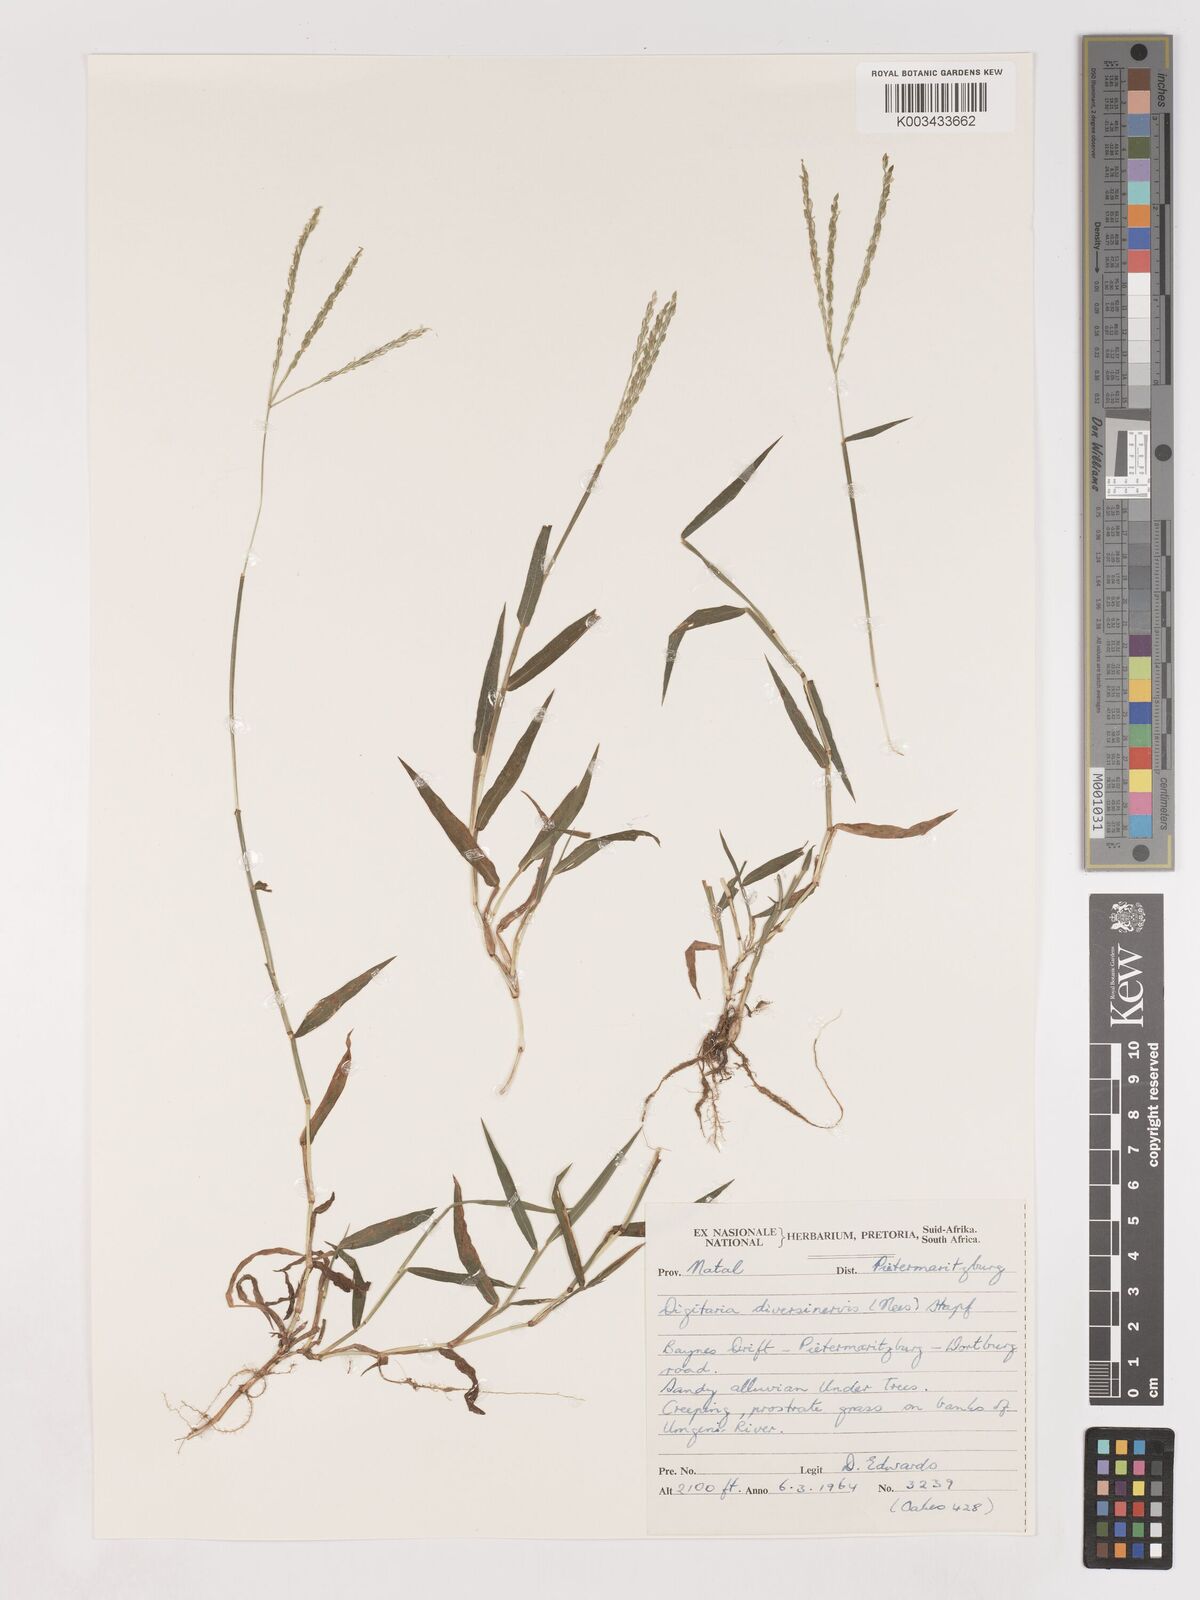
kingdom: Plantae
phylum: Tracheophyta
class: Liliopsida
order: Poales
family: Poaceae
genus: Digitaria
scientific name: Digitaria diversinervis
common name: Richmond finger grass
